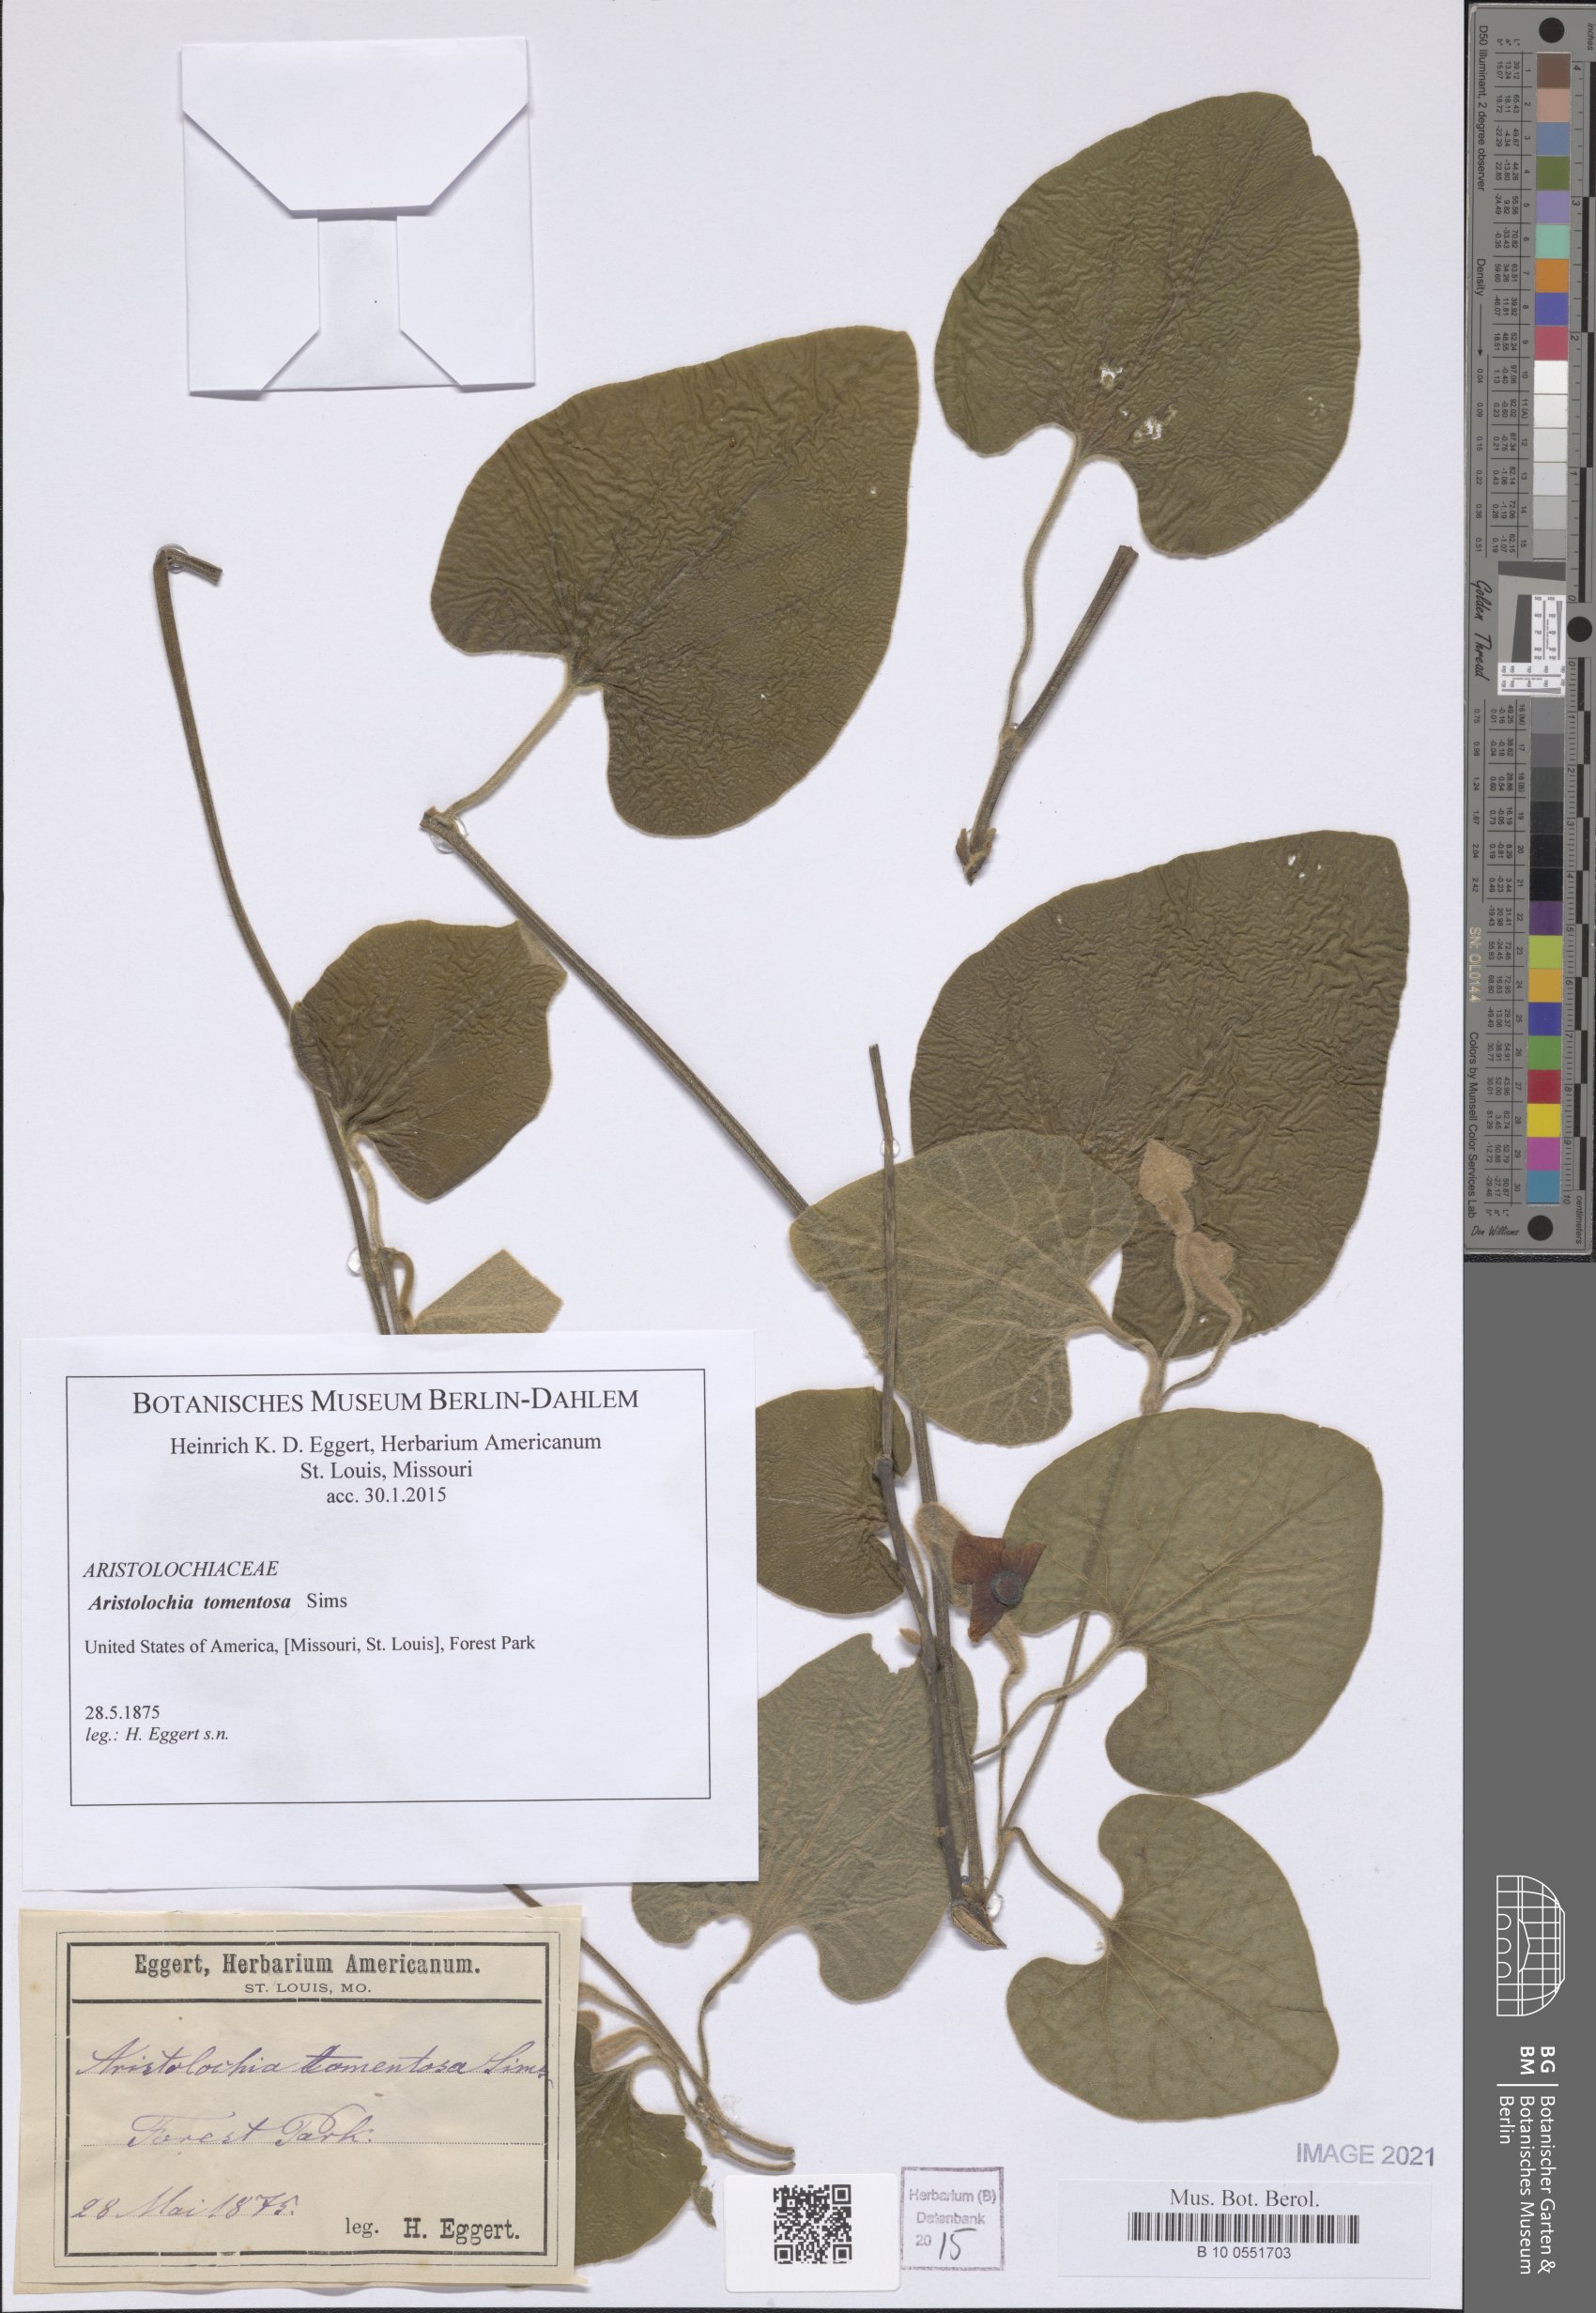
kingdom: Plantae
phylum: Tracheophyta
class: Magnoliopsida
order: Piperales
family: Aristolochiaceae
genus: Isotrema
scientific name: Isotrema tomentosum
